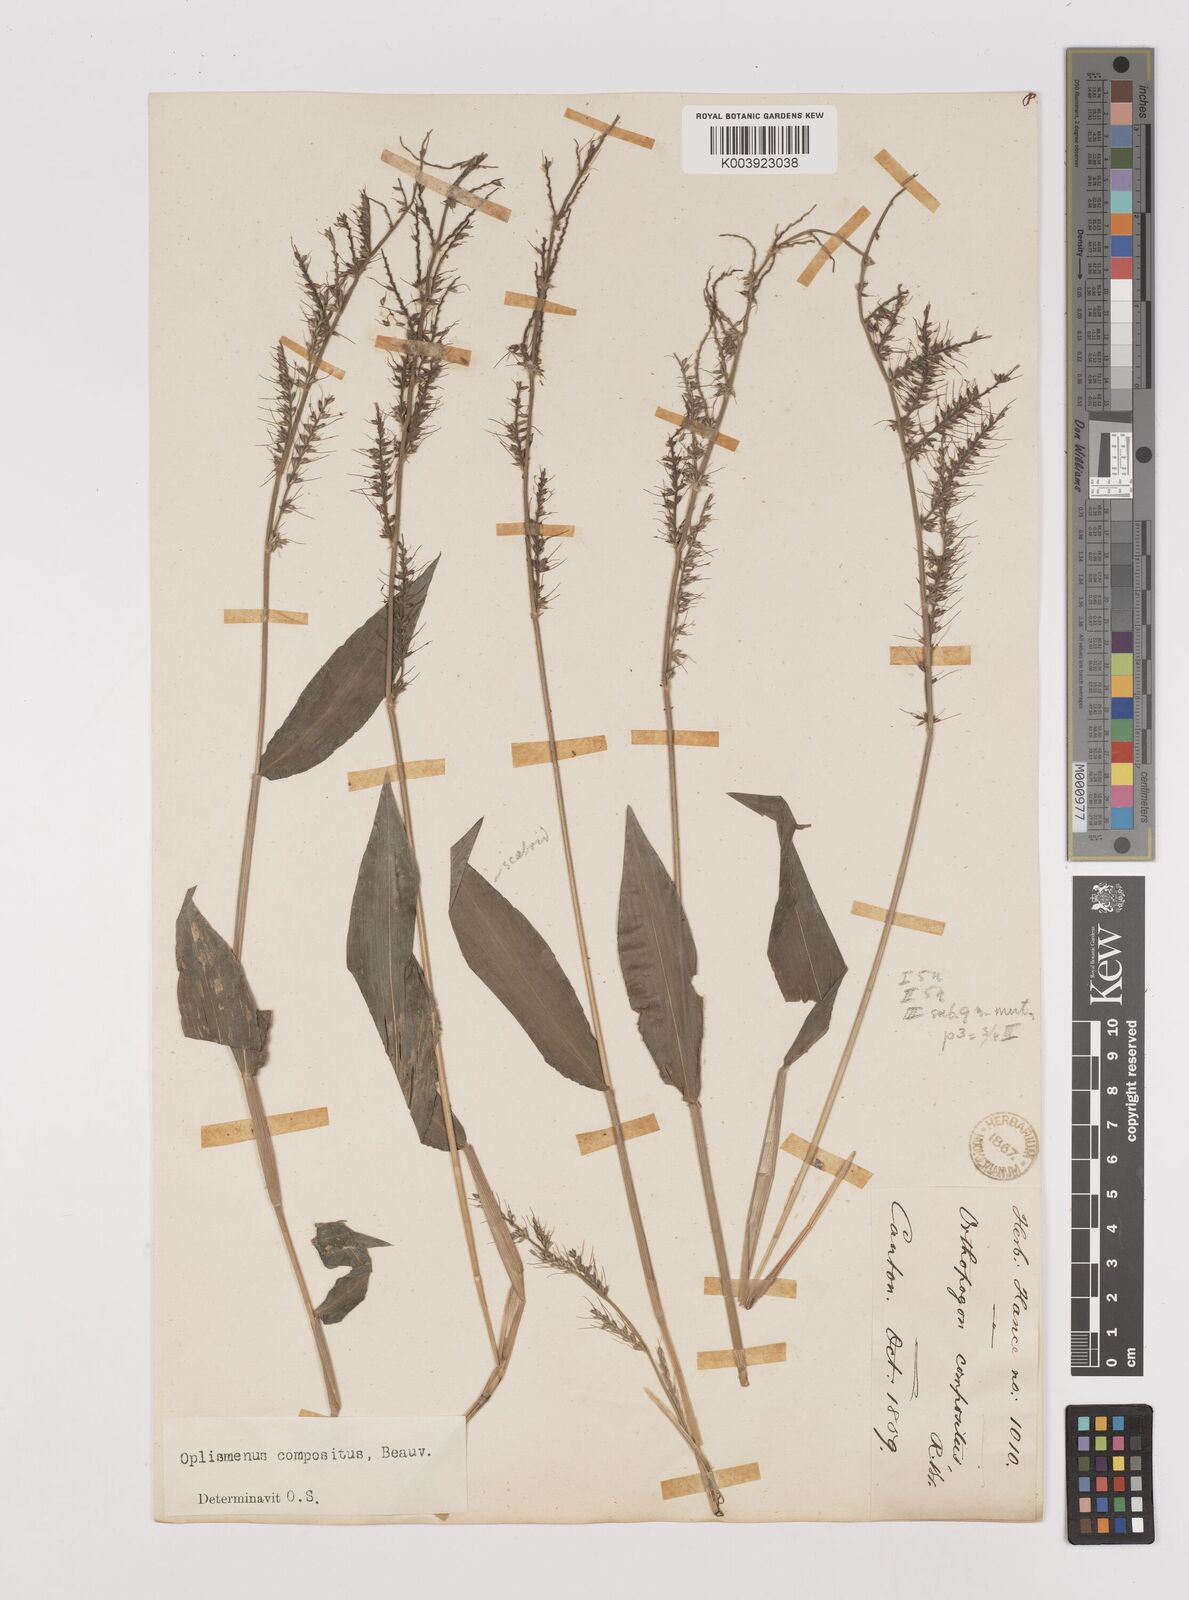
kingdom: Plantae
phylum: Tracheophyta
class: Liliopsida
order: Poales
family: Poaceae
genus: Oplismenus
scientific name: Oplismenus compositus
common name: Running mountain grass
